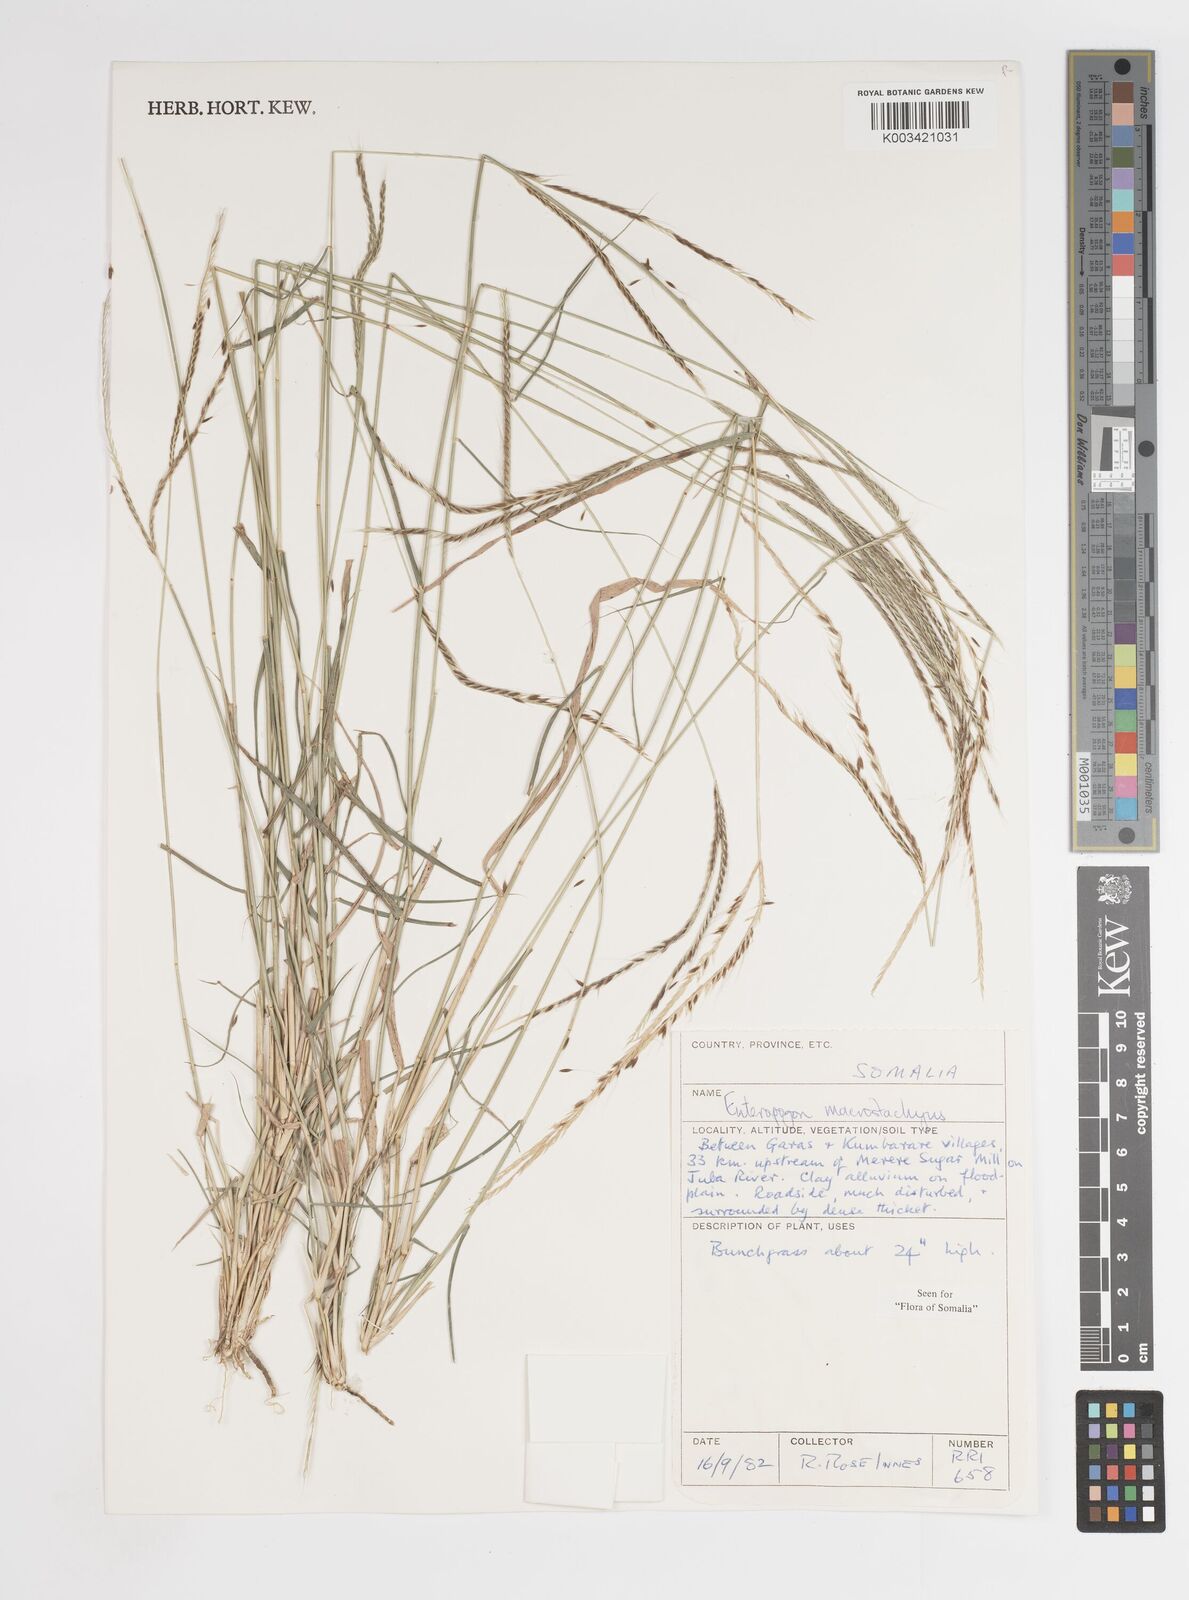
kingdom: Plantae
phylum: Tracheophyta
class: Liliopsida
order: Poales
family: Poaceae
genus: Enteropogon
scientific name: Enteropogon macrostachyus
